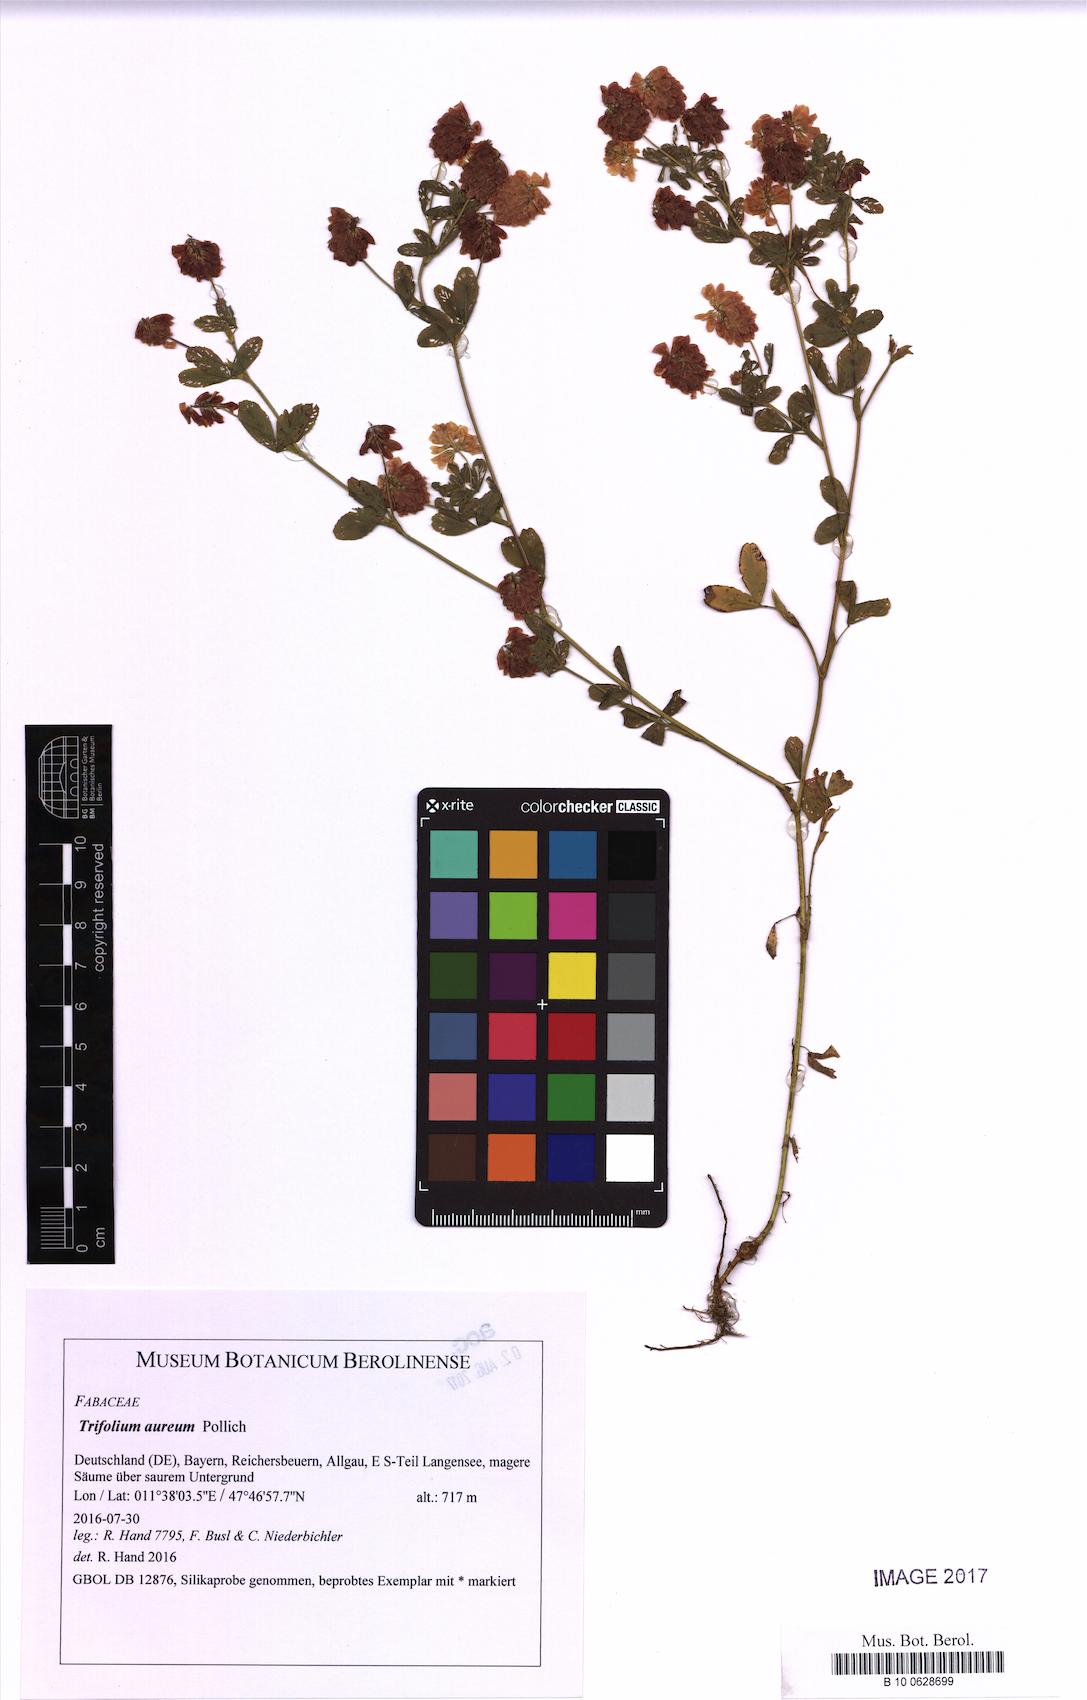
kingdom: Plantae
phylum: Tracheophyta
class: Magnoliopsida
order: Fabales
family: Fabaceae
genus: Trifolium
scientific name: Trifolium aureum
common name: Golden clover
